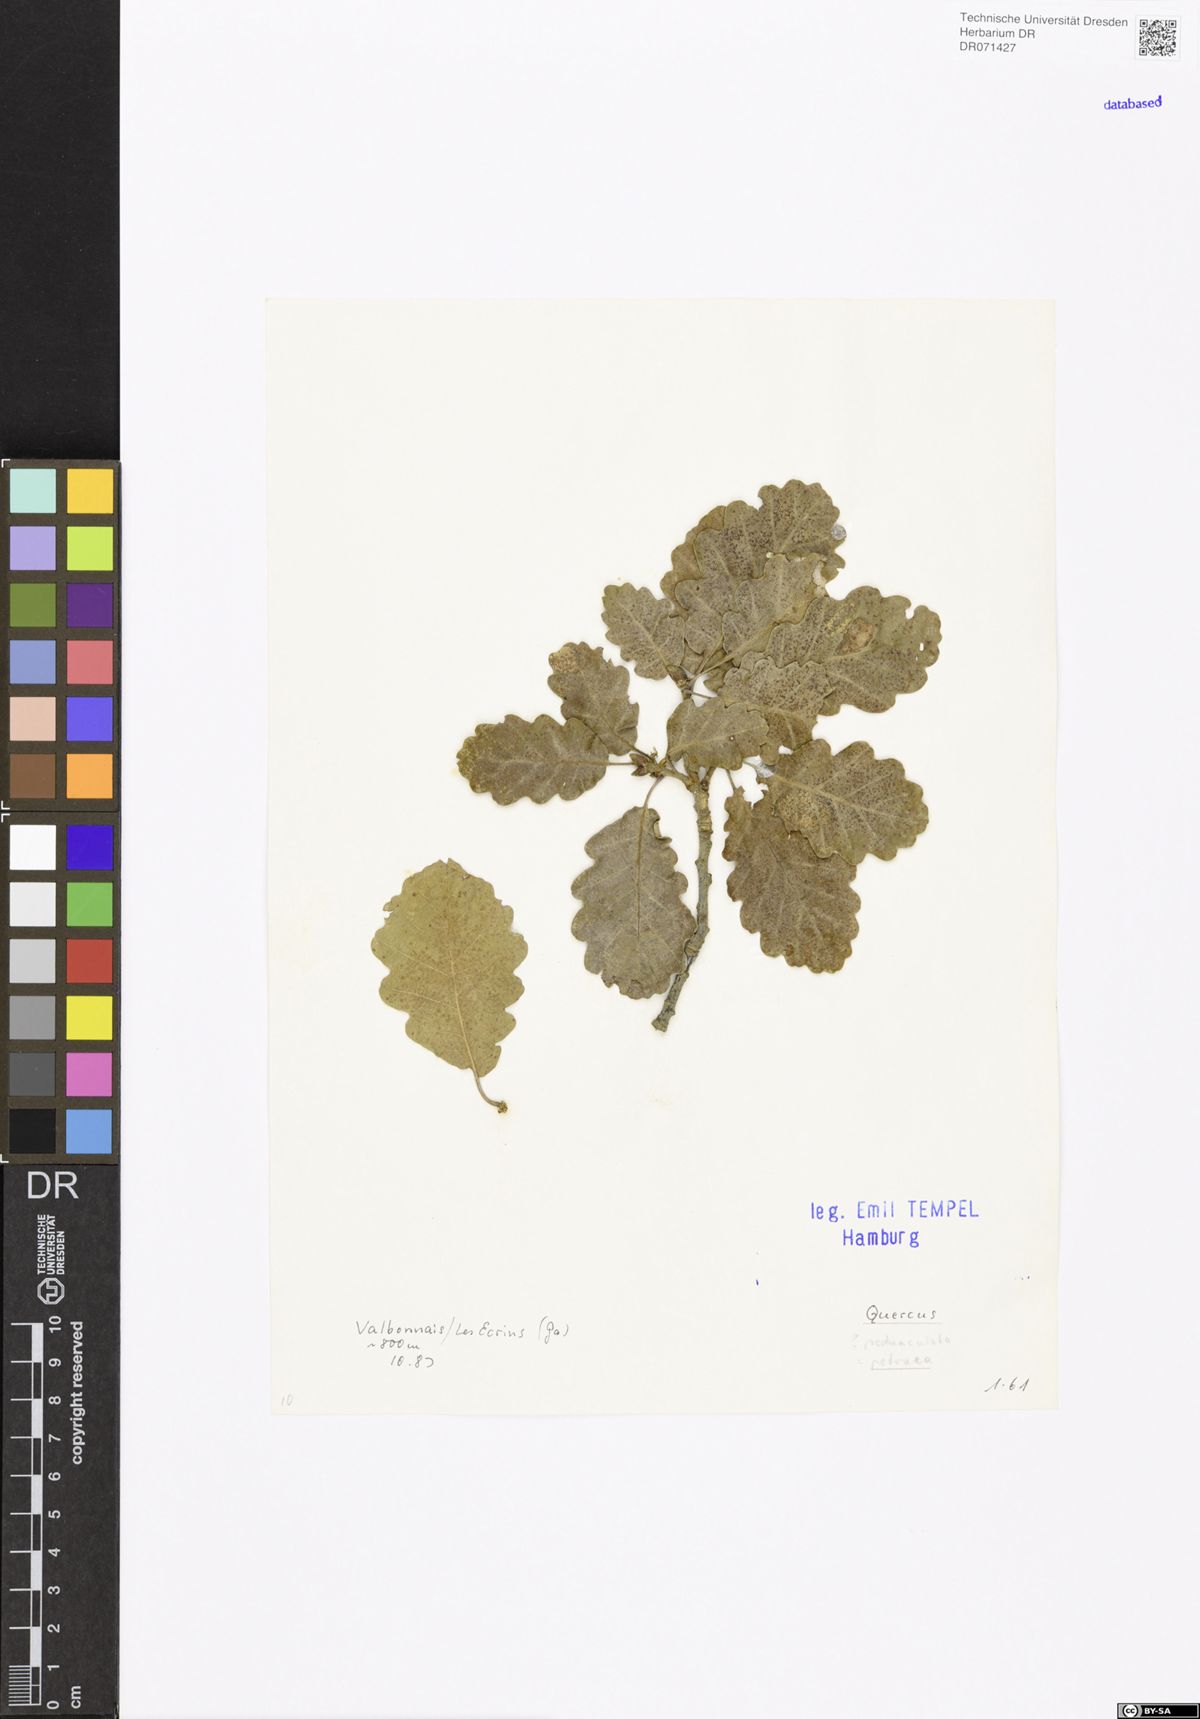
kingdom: Plantae
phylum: Tracheophyta
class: Magnoliopsida
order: Fagales
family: Fagaceae
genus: Quercus
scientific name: Quercus petraea
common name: Sessile oak
